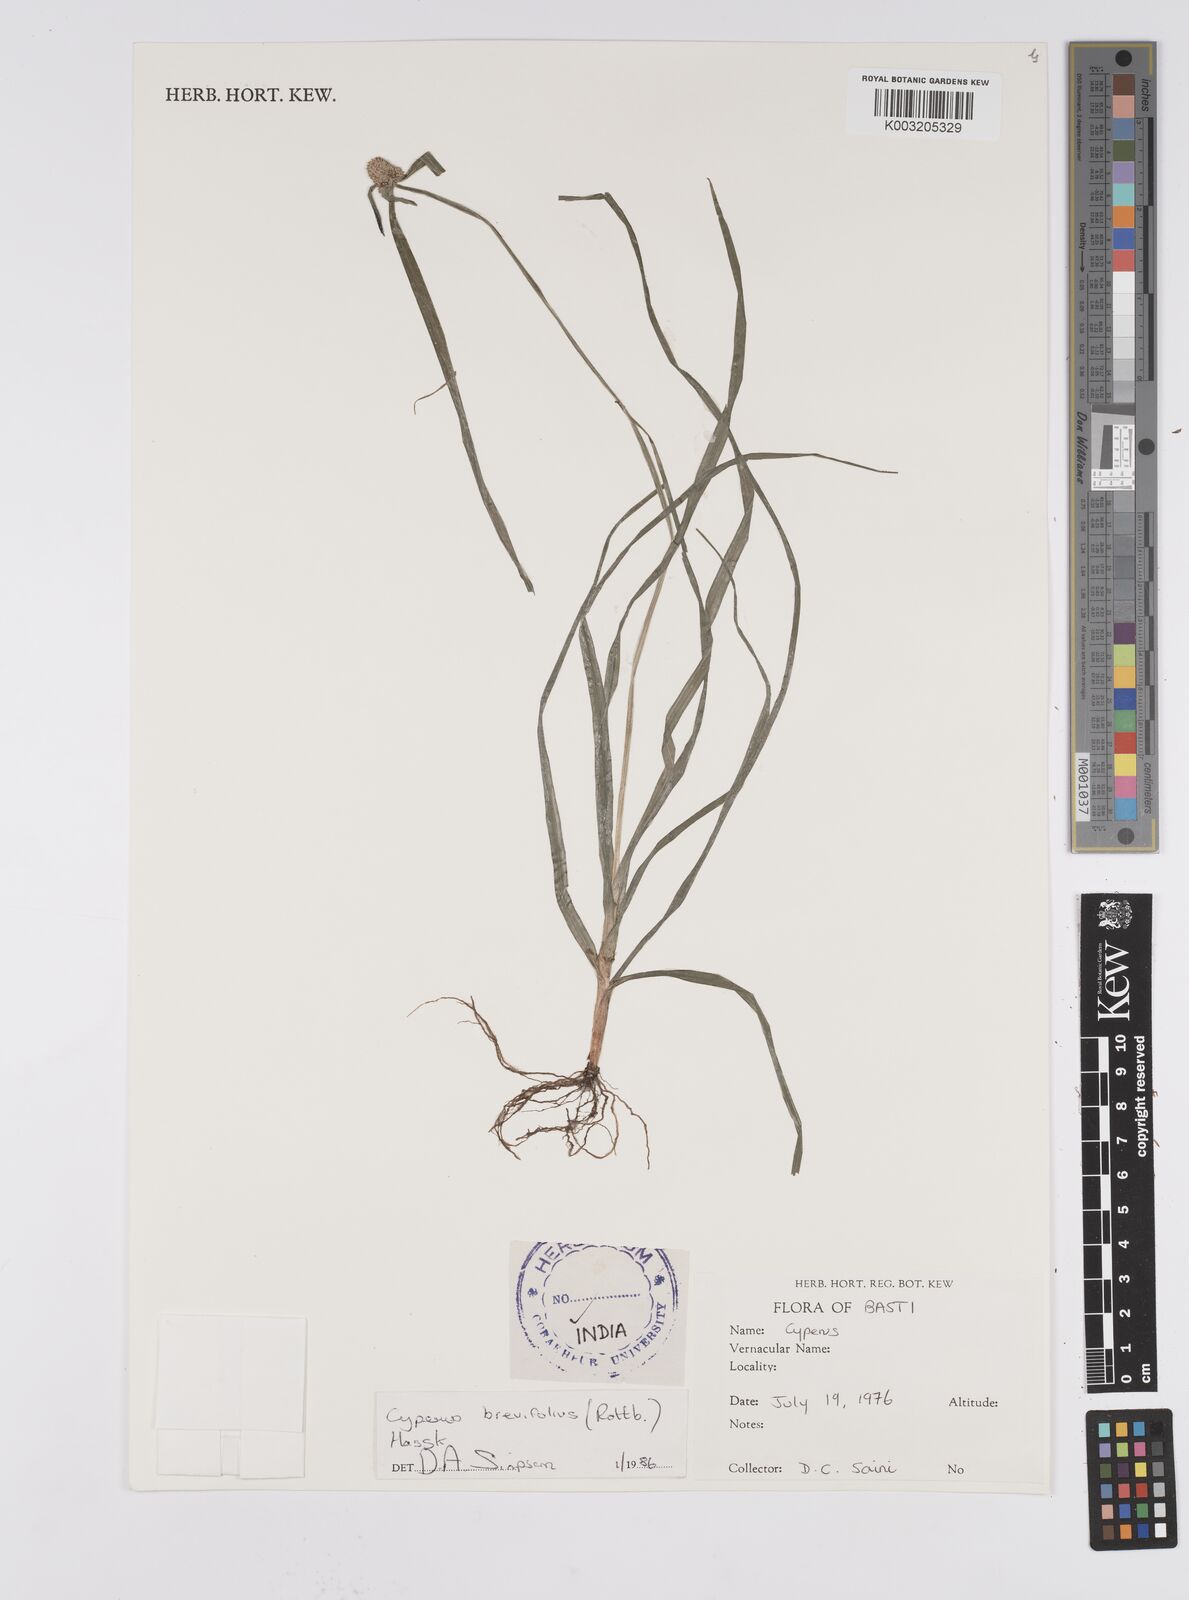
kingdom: Plantae
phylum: Tracheophyta
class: Liliopsida
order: Poales
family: Cyperaceae
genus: Cyperus
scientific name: Cyperus brevifolius
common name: Globe kyllinga
